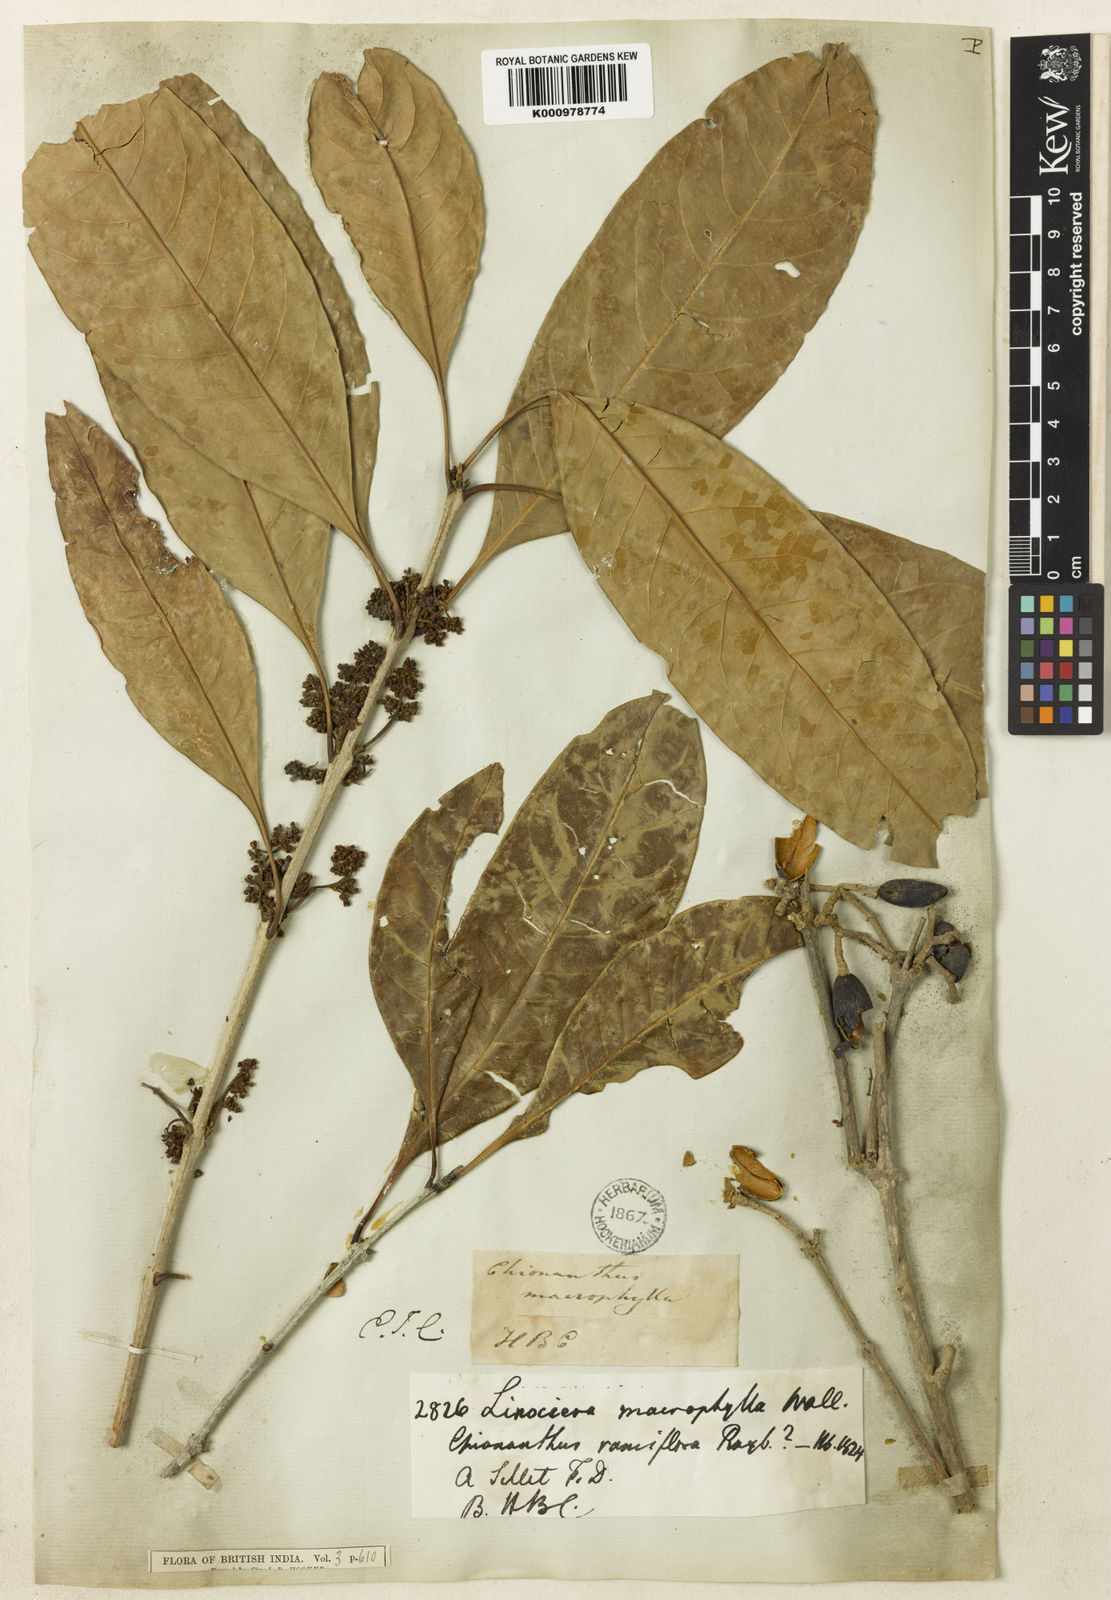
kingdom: Plantae
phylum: Tracheophyta
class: Magnoliopsida
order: Lamiales
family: Oleaceae
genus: Chionanthus
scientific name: Chionanthus zeylanicus
